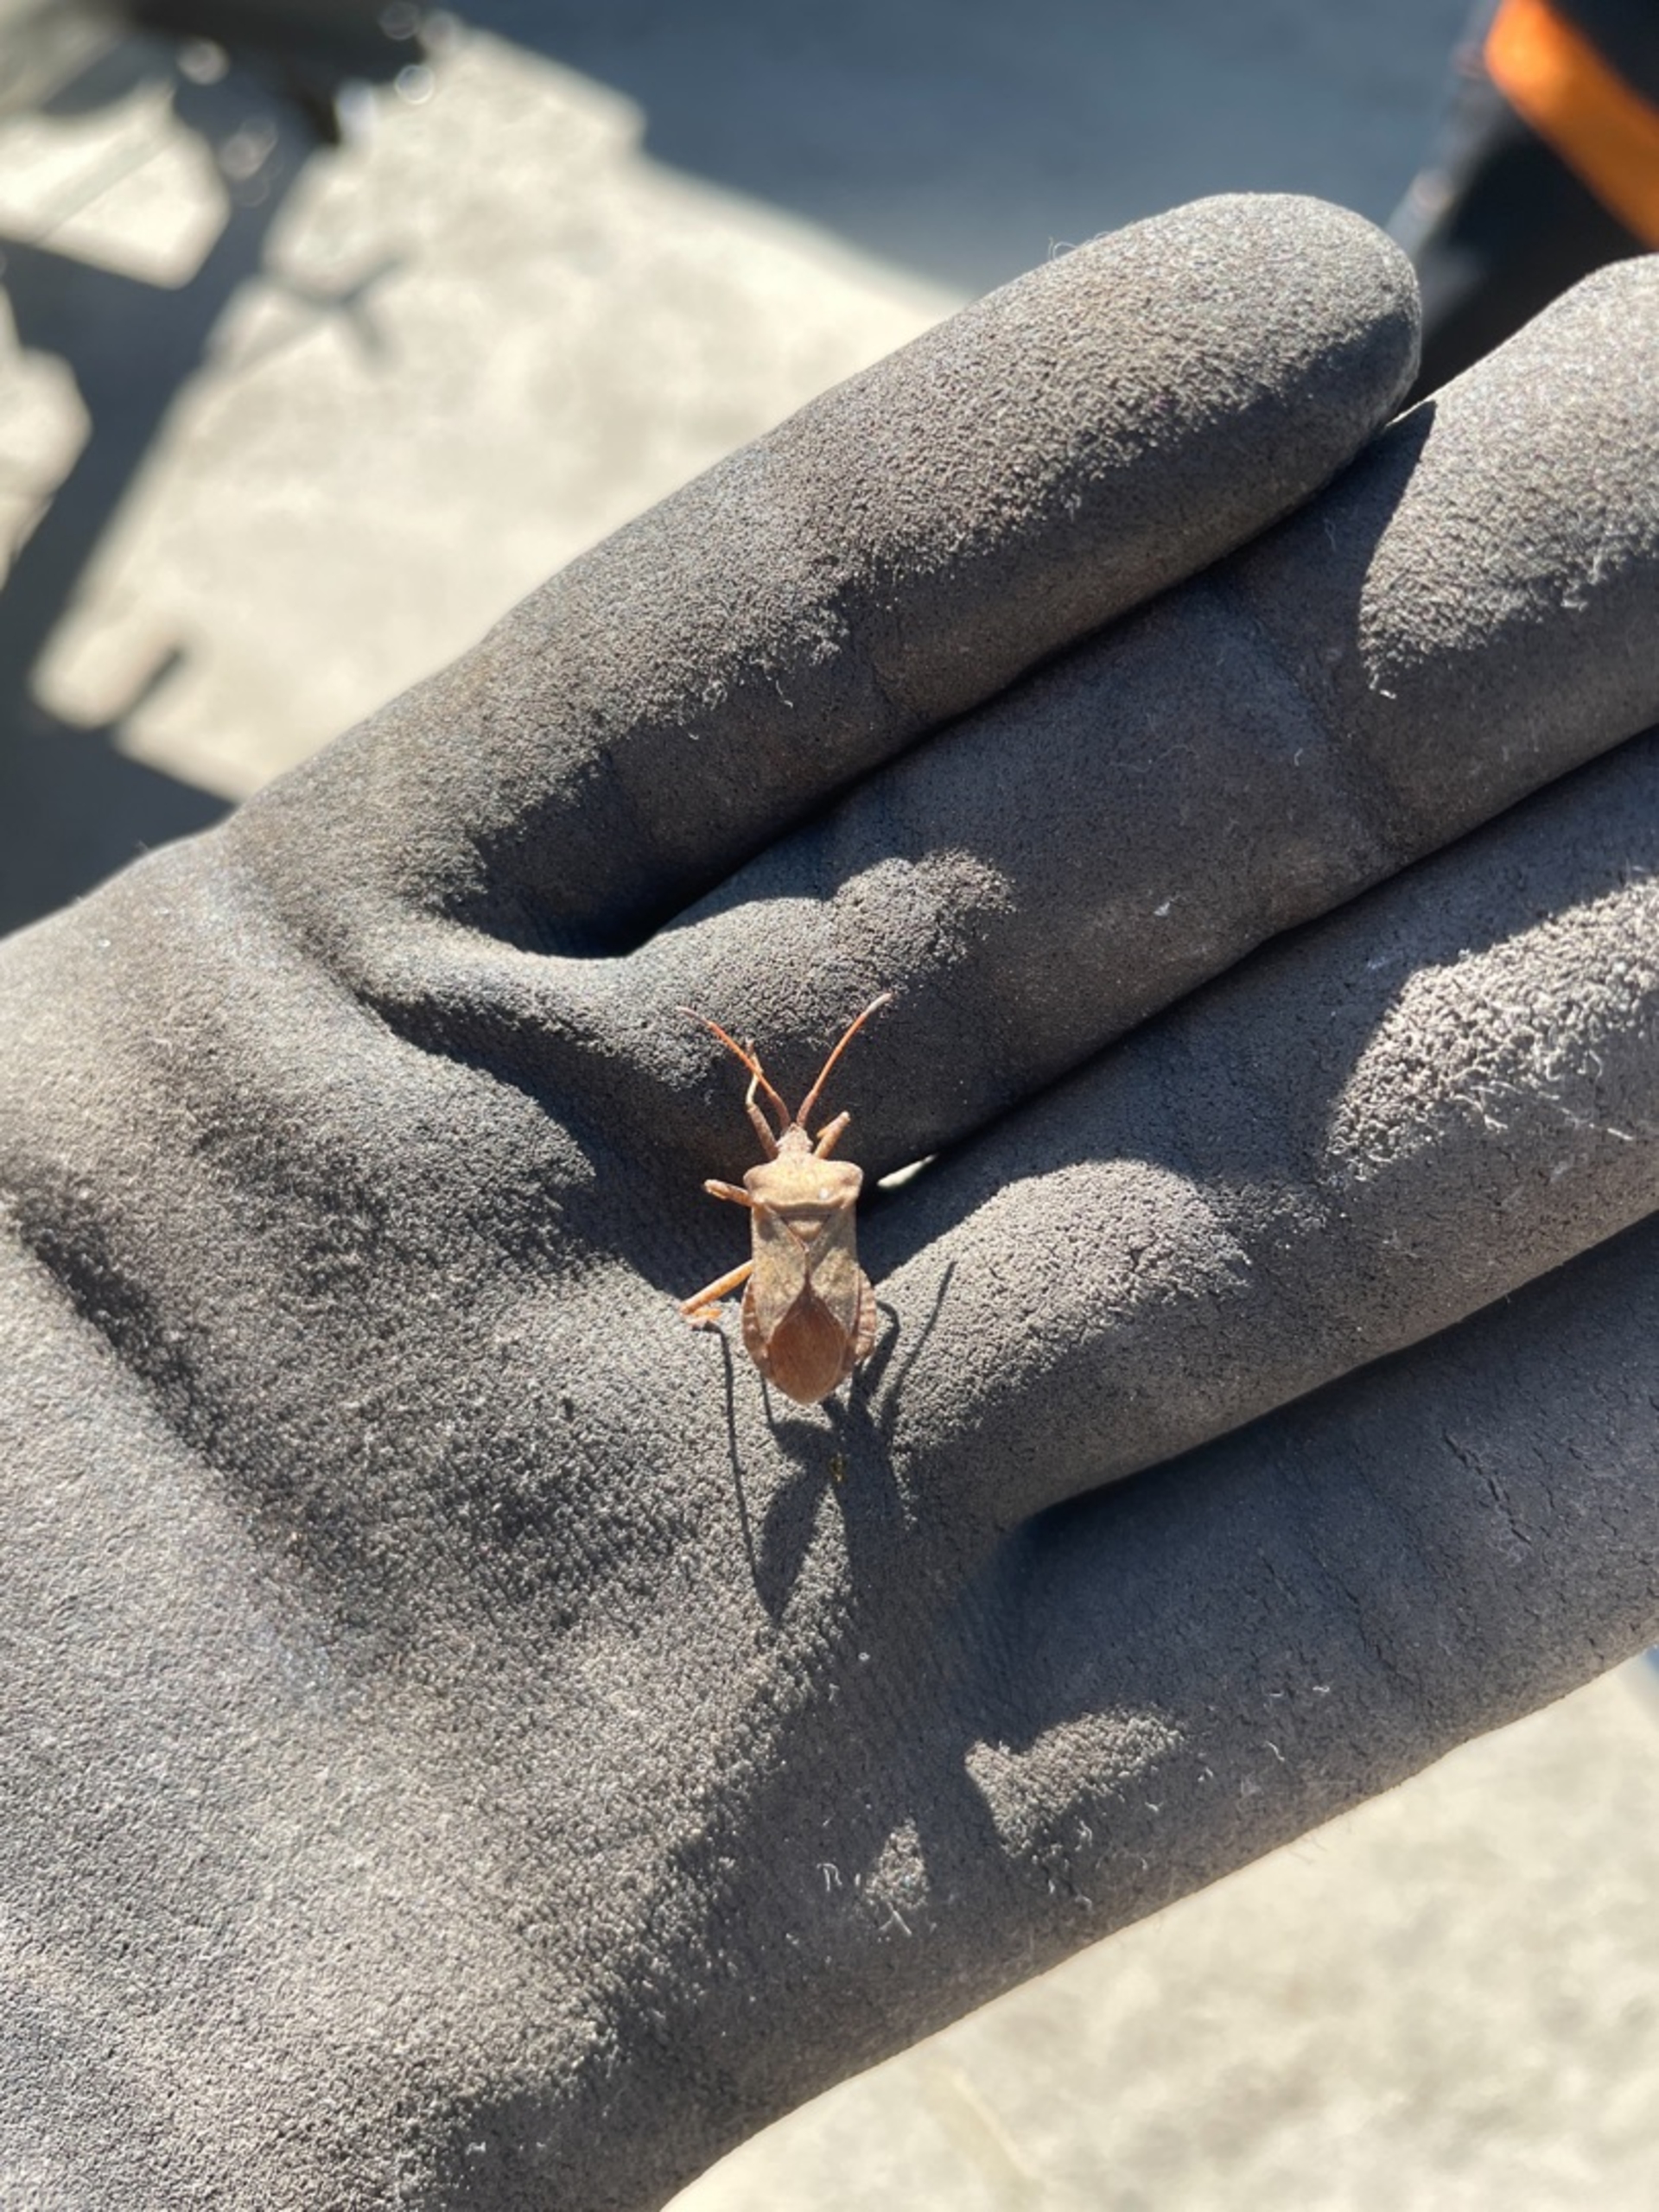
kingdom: Animalia
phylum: Arthropoda
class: Insecta
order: Hemiptera
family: Coreidae
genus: Coreus
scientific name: Coreus marginatus
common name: Skræppetæge
